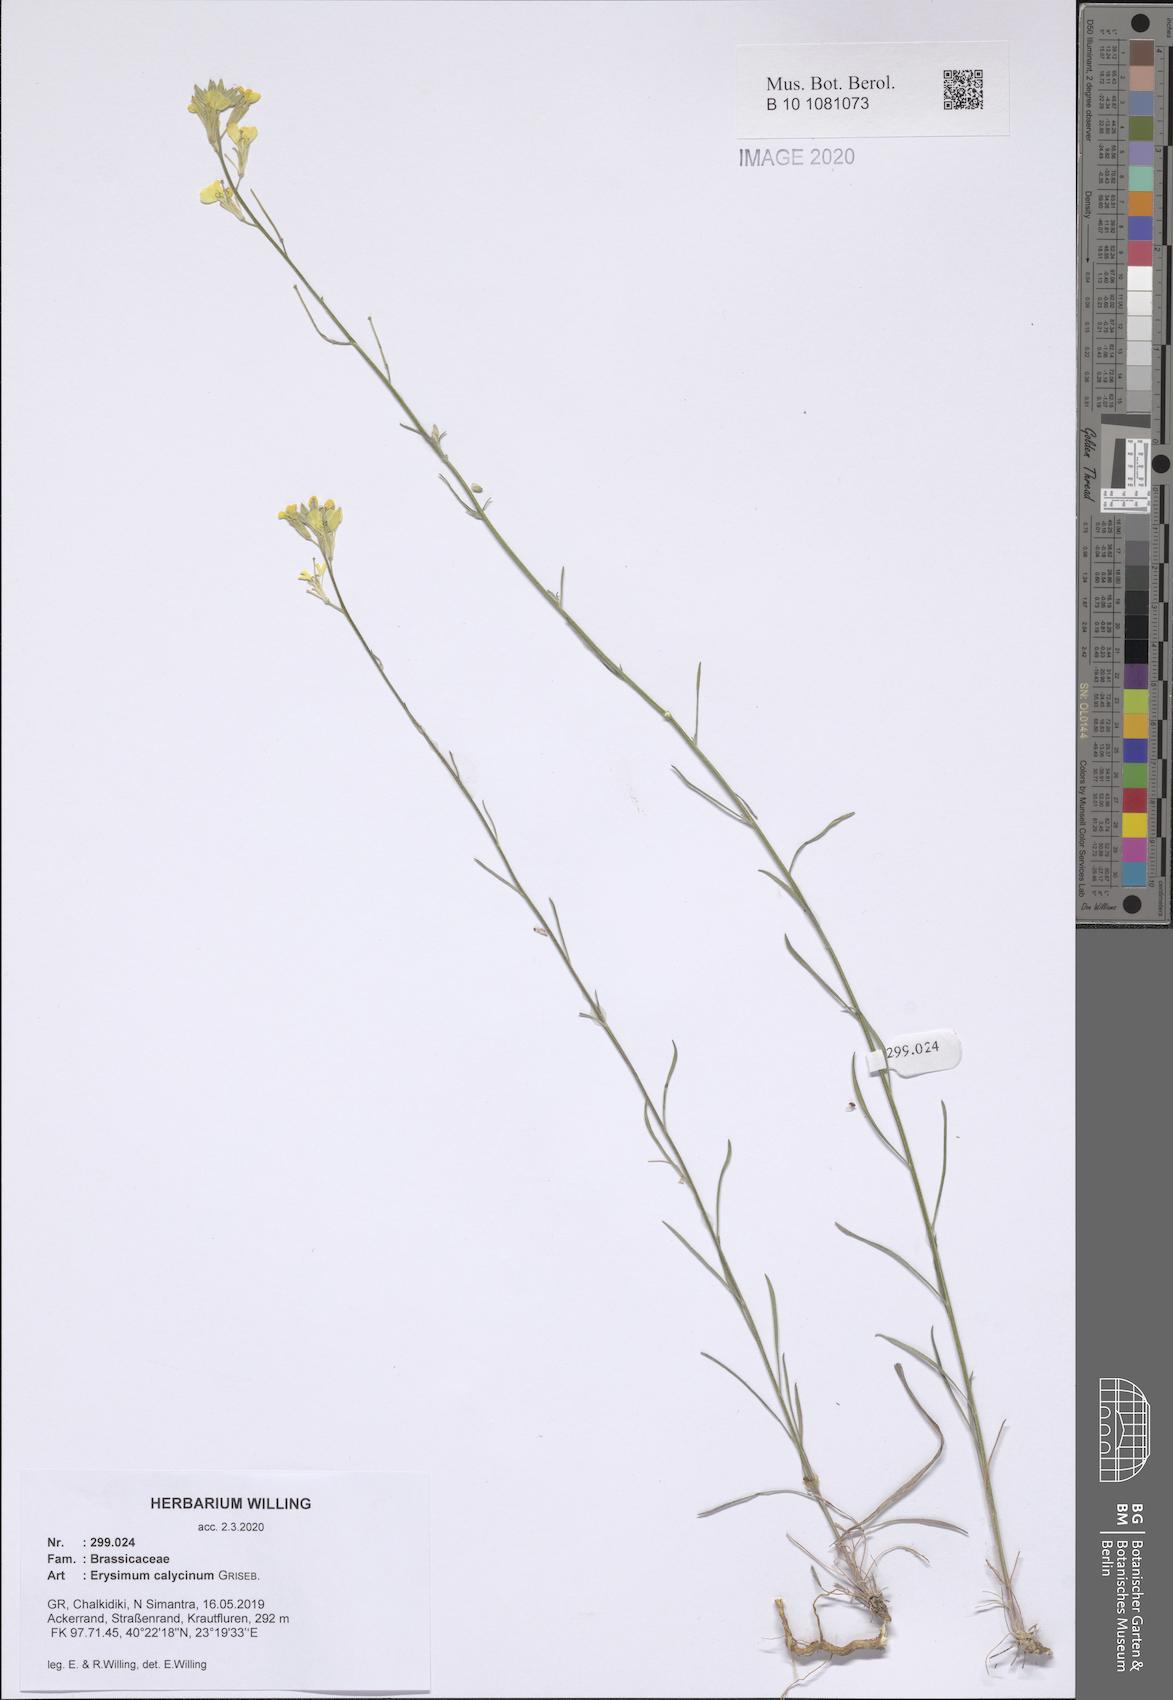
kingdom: Plantae
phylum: Tracheophyta
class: Magnoliopsida
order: Brassicales
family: Brassicaceae
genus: Erysimum
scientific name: Erysimum calycinum
